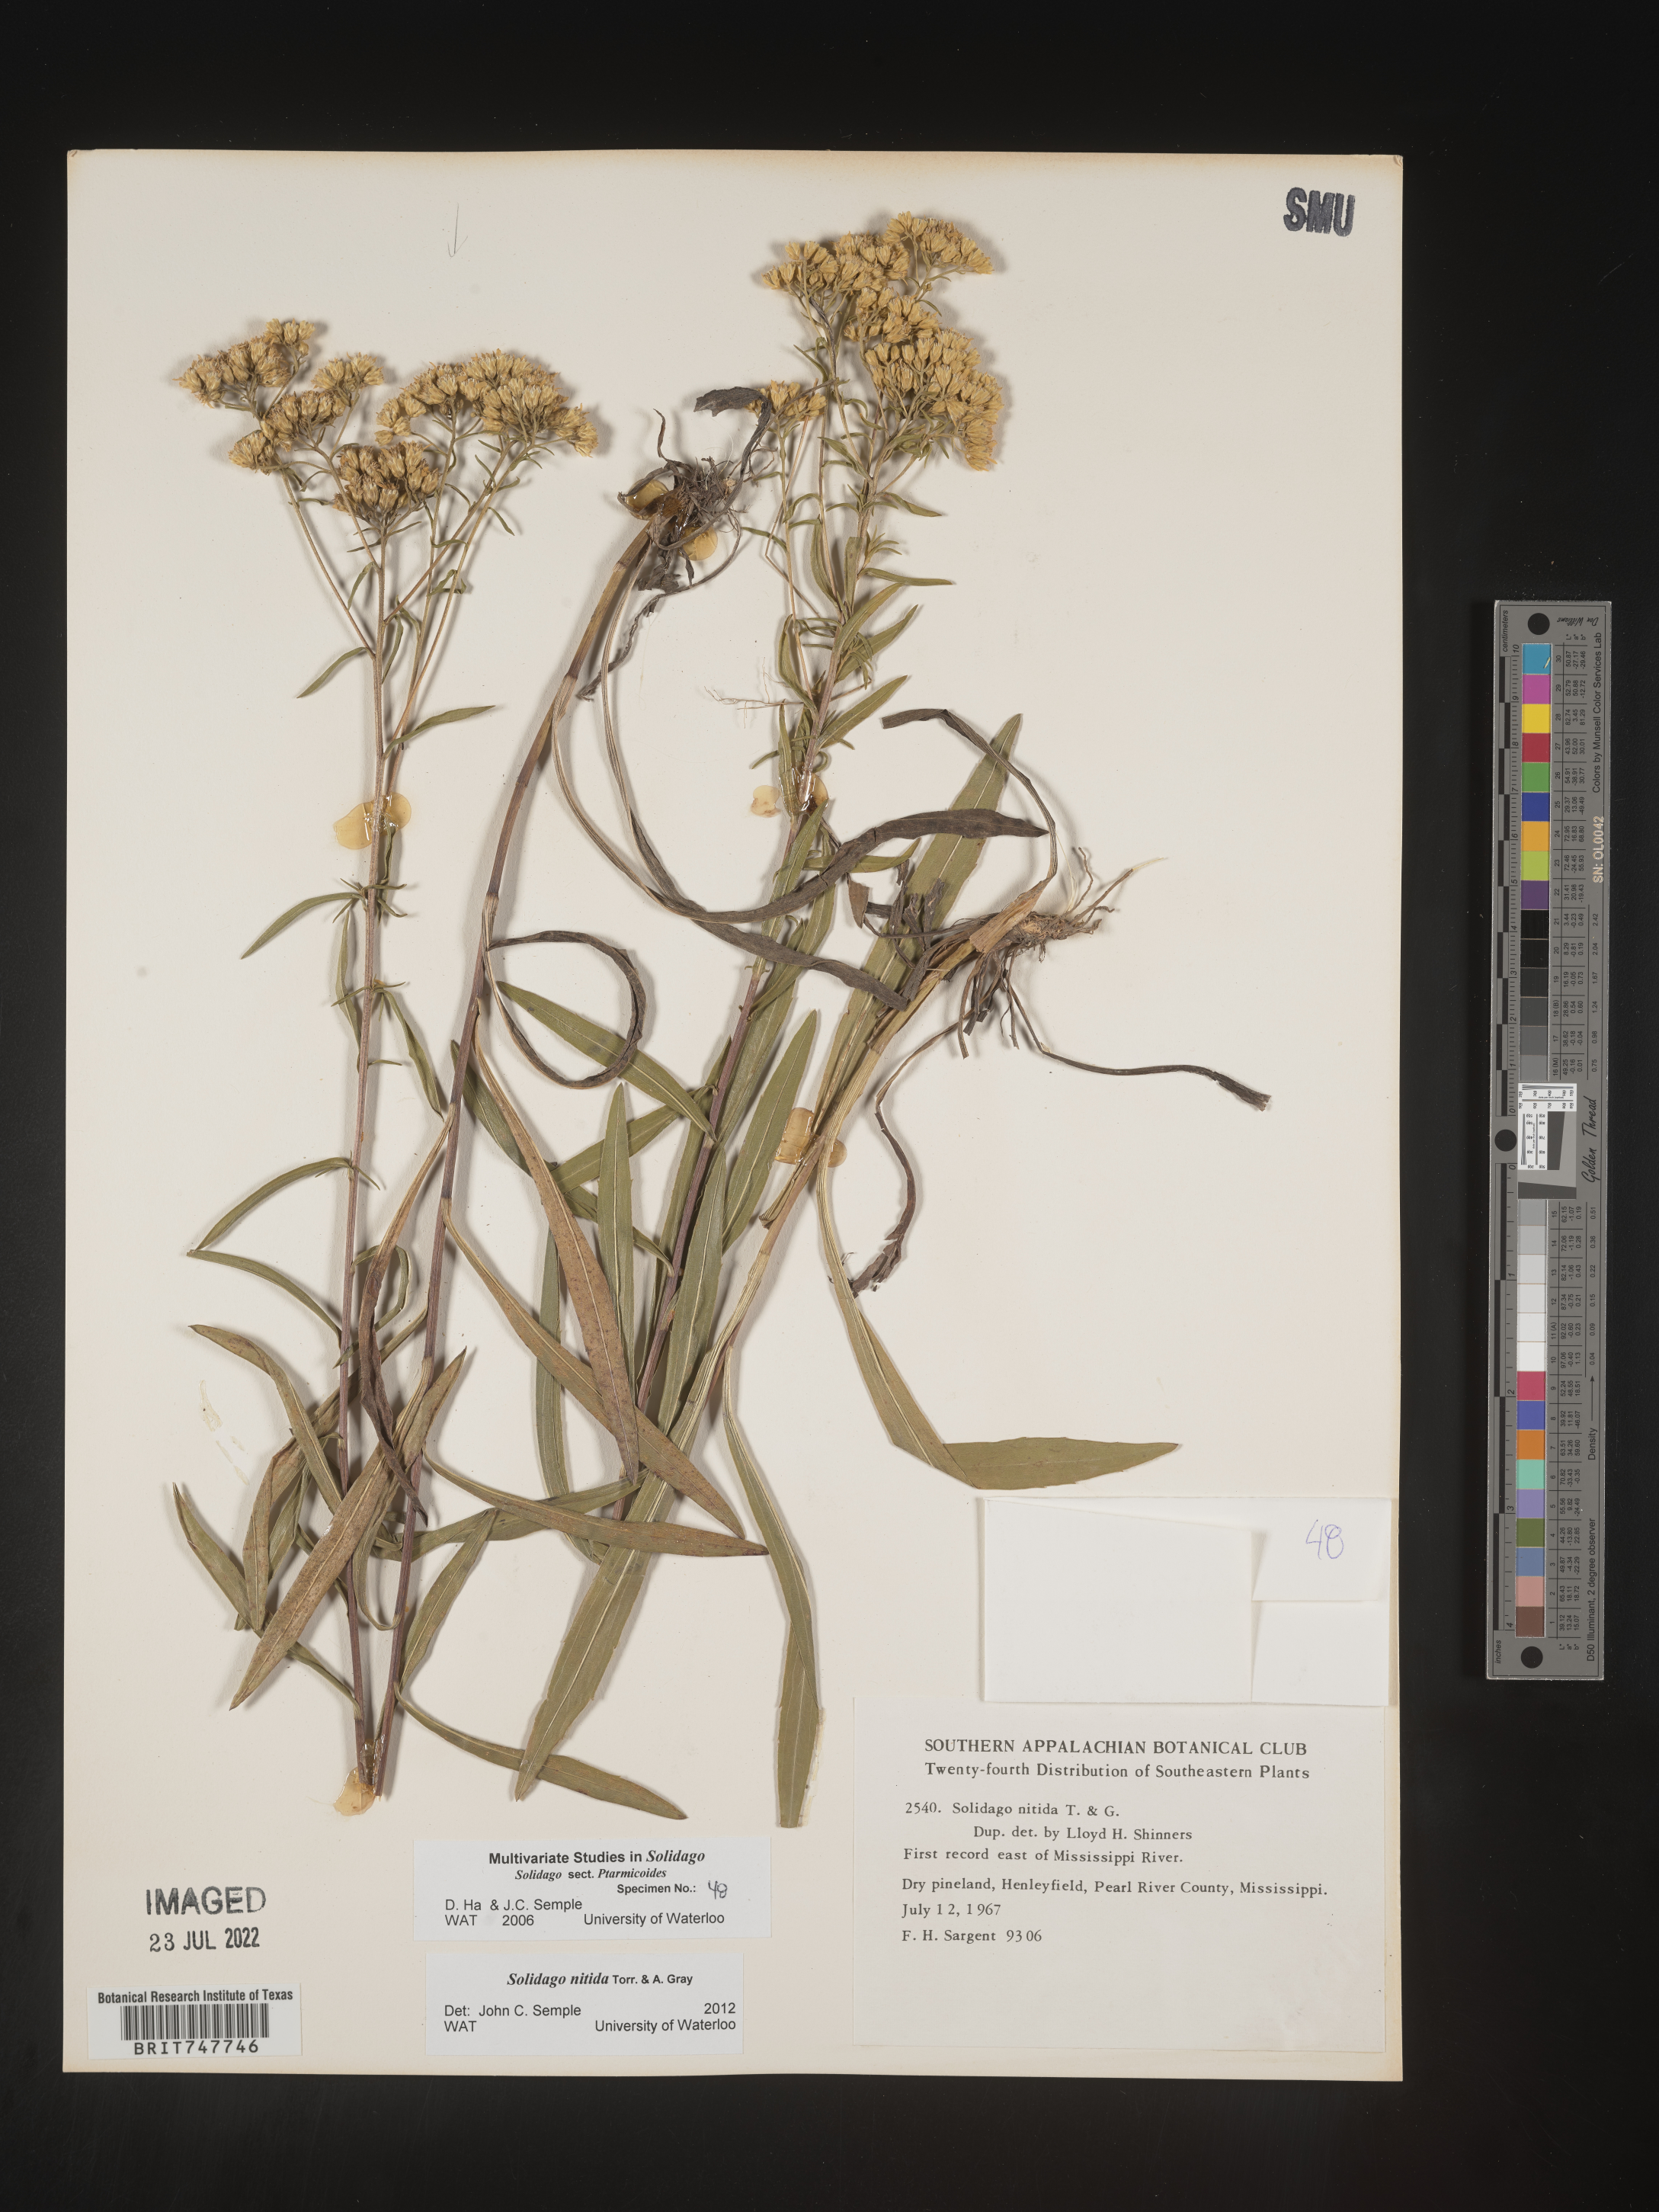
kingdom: Plantae
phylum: Tracheophyta
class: Magnoliopsida
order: Asterales
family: Asteraceae
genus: Solidago
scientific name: Solidago nitida
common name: Shiny goldenrod
